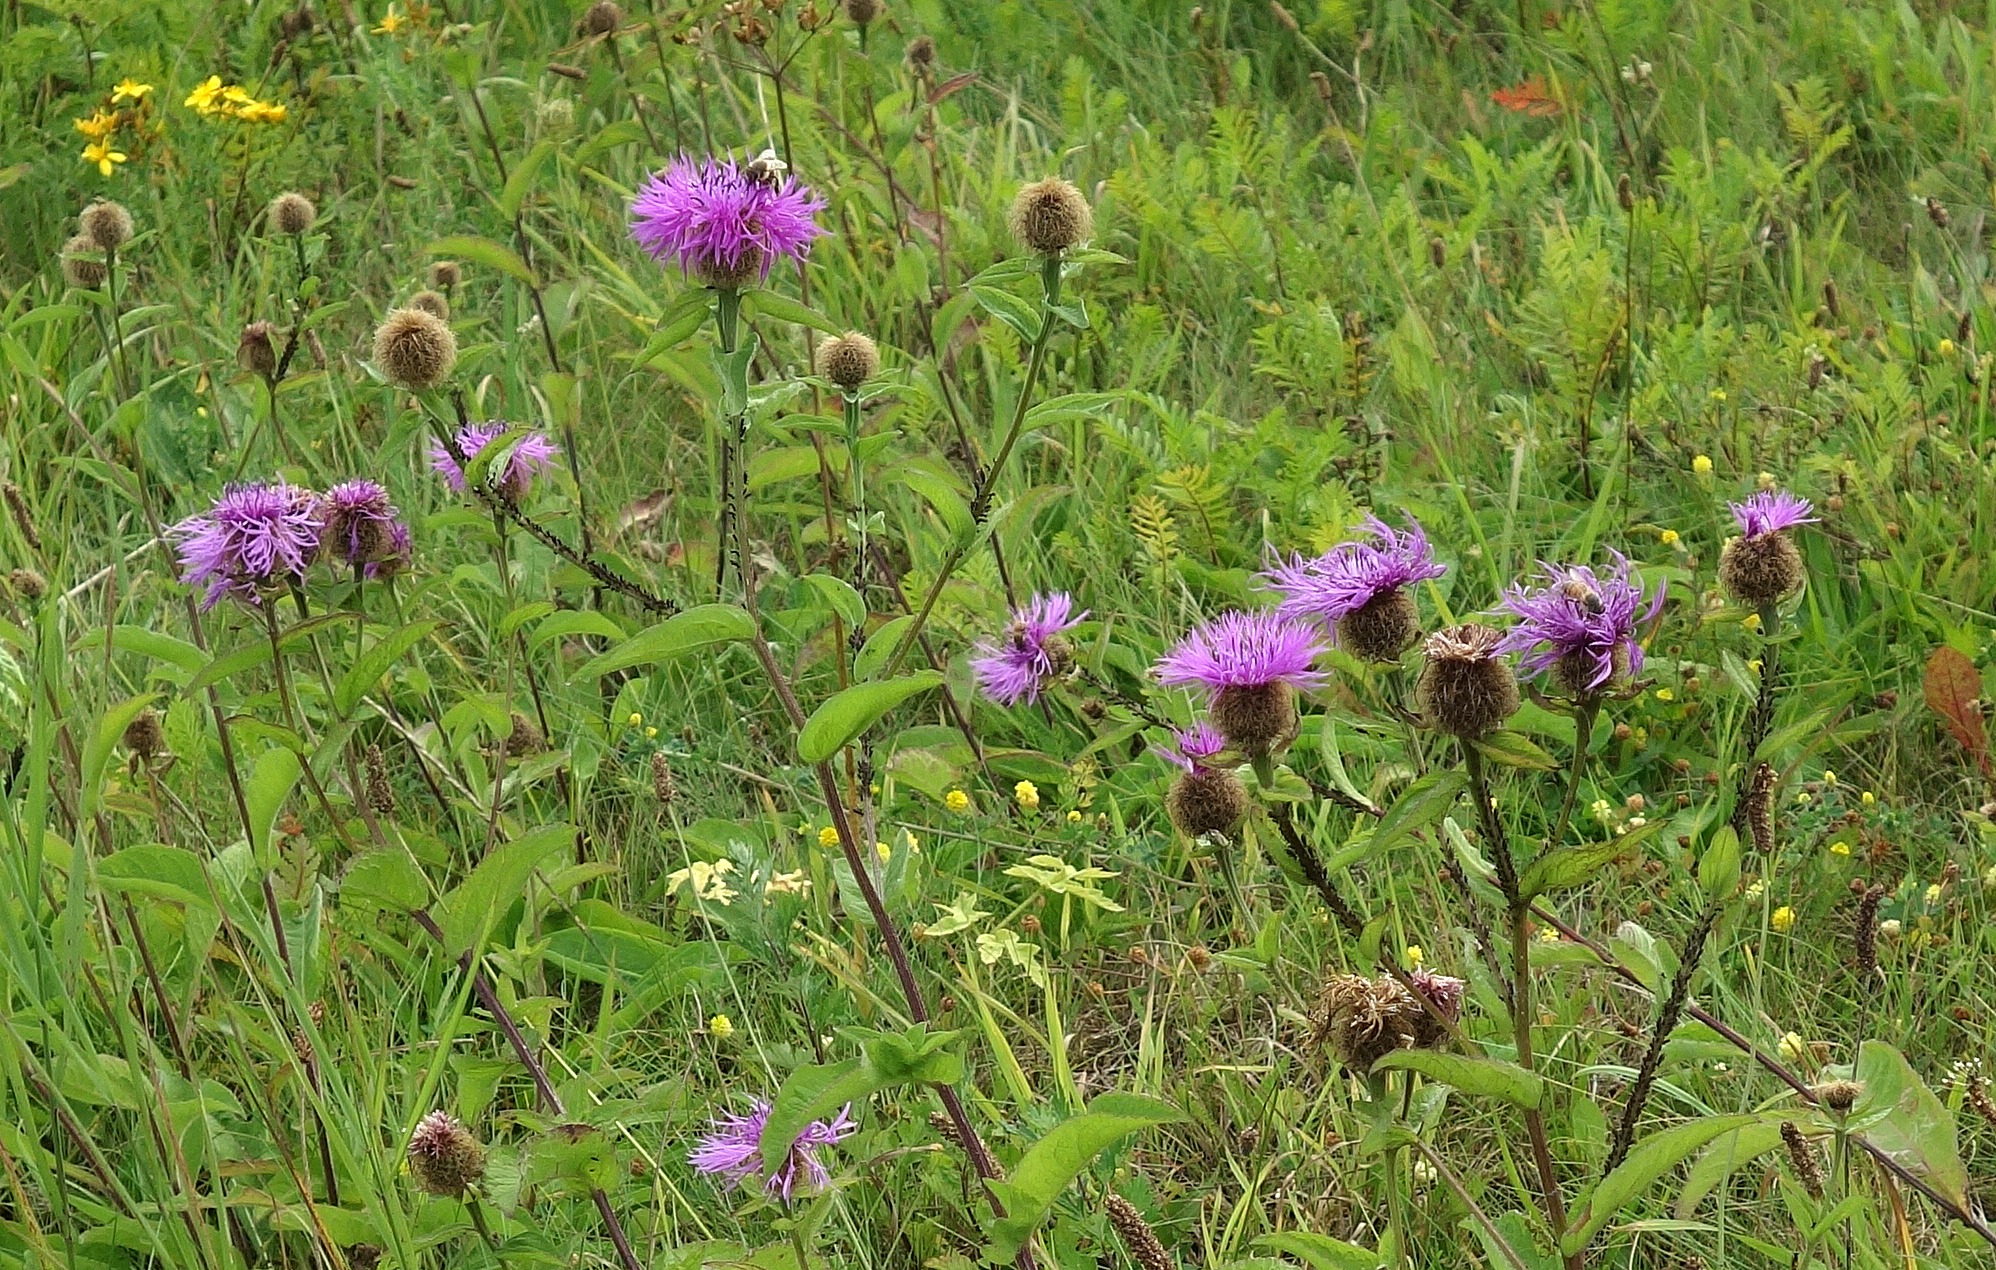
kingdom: Plantae
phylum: Tracheophyta
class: Magnoliopsida
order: Asterales
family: Asteraceae
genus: Centaurea
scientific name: Centaurea pseudophrygia
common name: Fjer-knopurt
